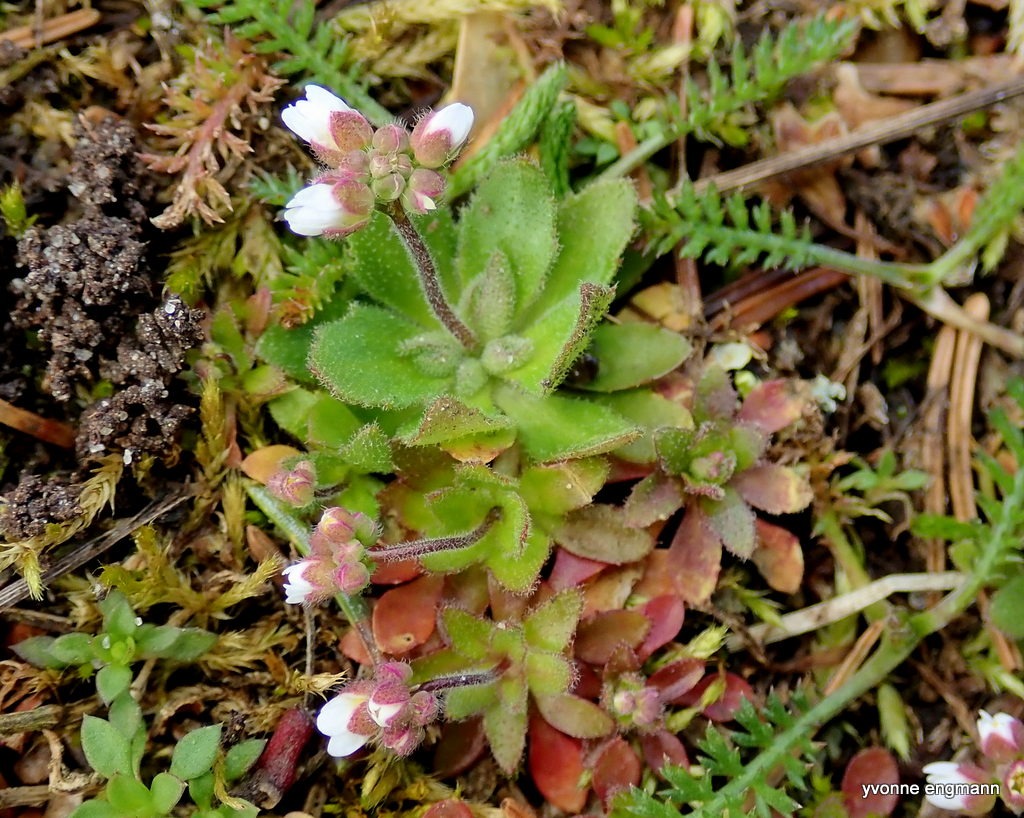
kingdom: Plantae
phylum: Tracheophyta
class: Magnoliopsida
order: Brassicales
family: Brassicaceae
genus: Draba
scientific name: Draba verna
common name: Vår-gæslingeblomst
